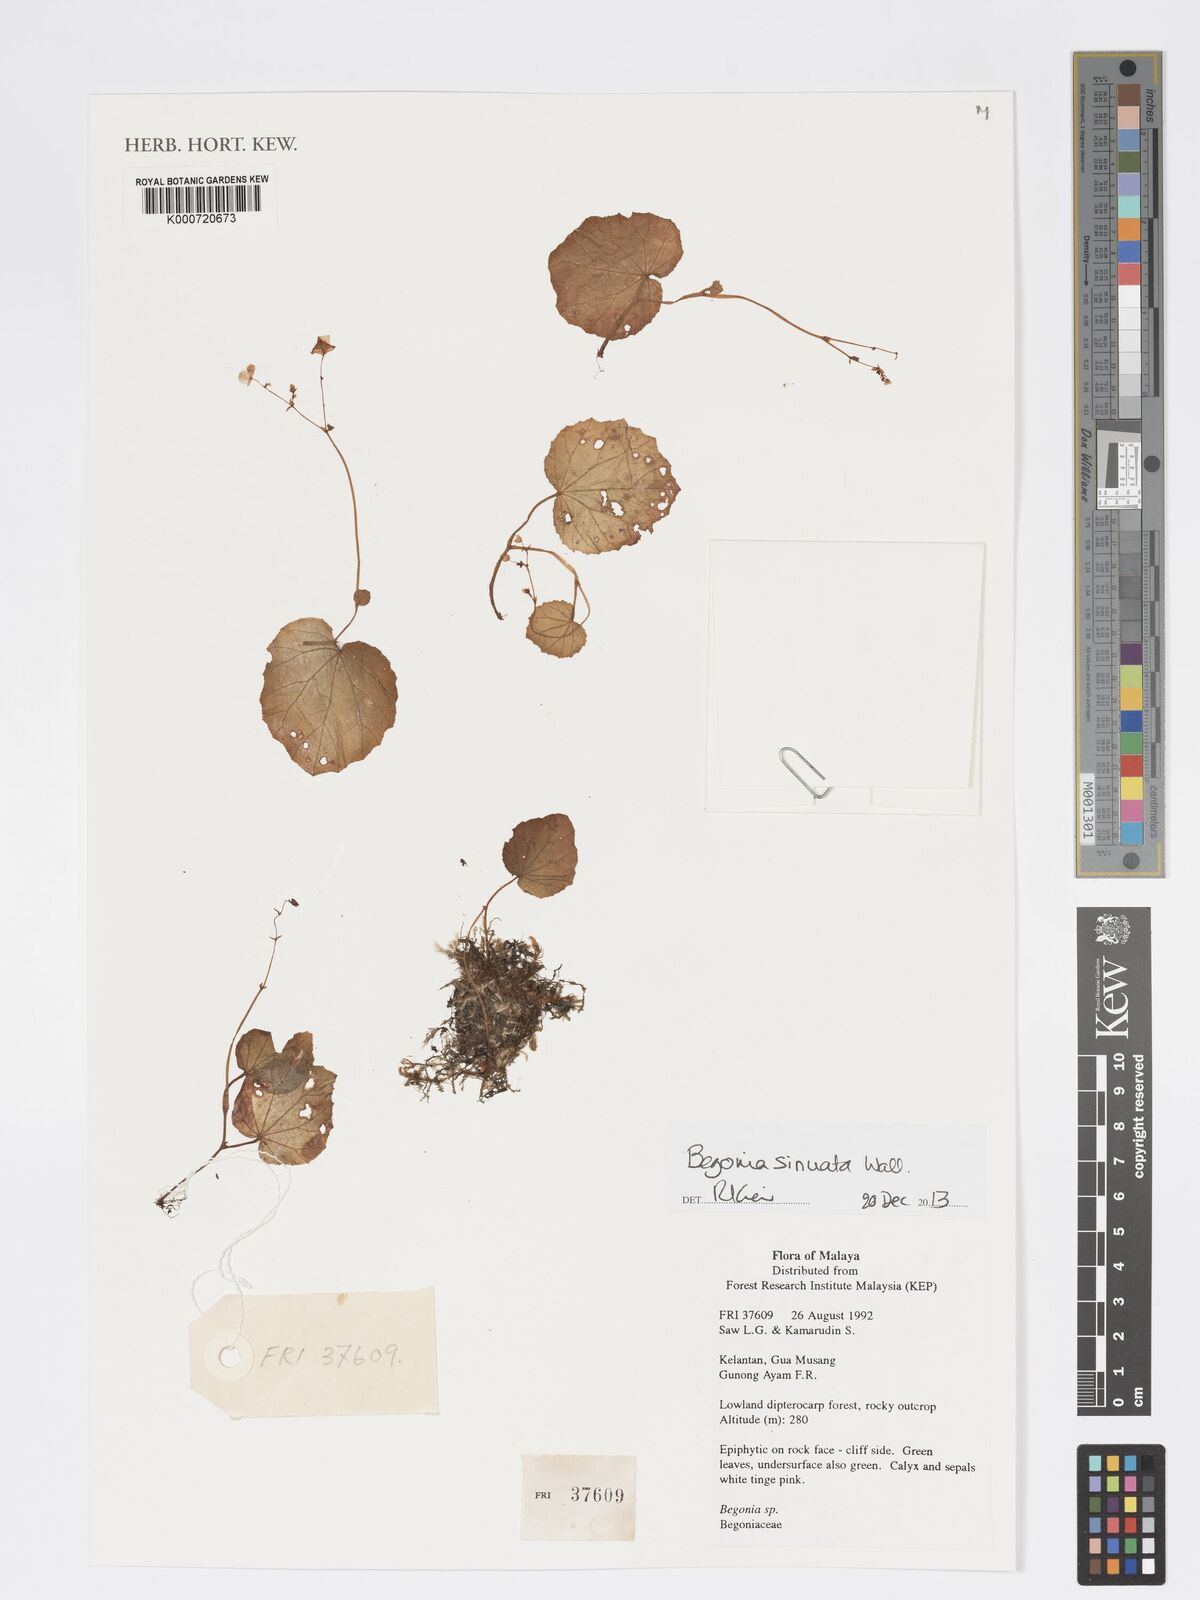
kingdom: Plantae
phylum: Tracheophyta
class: Magnoliopsida
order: Cucurbitales
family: Begoniaceae
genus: Begonia
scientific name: Begonia
